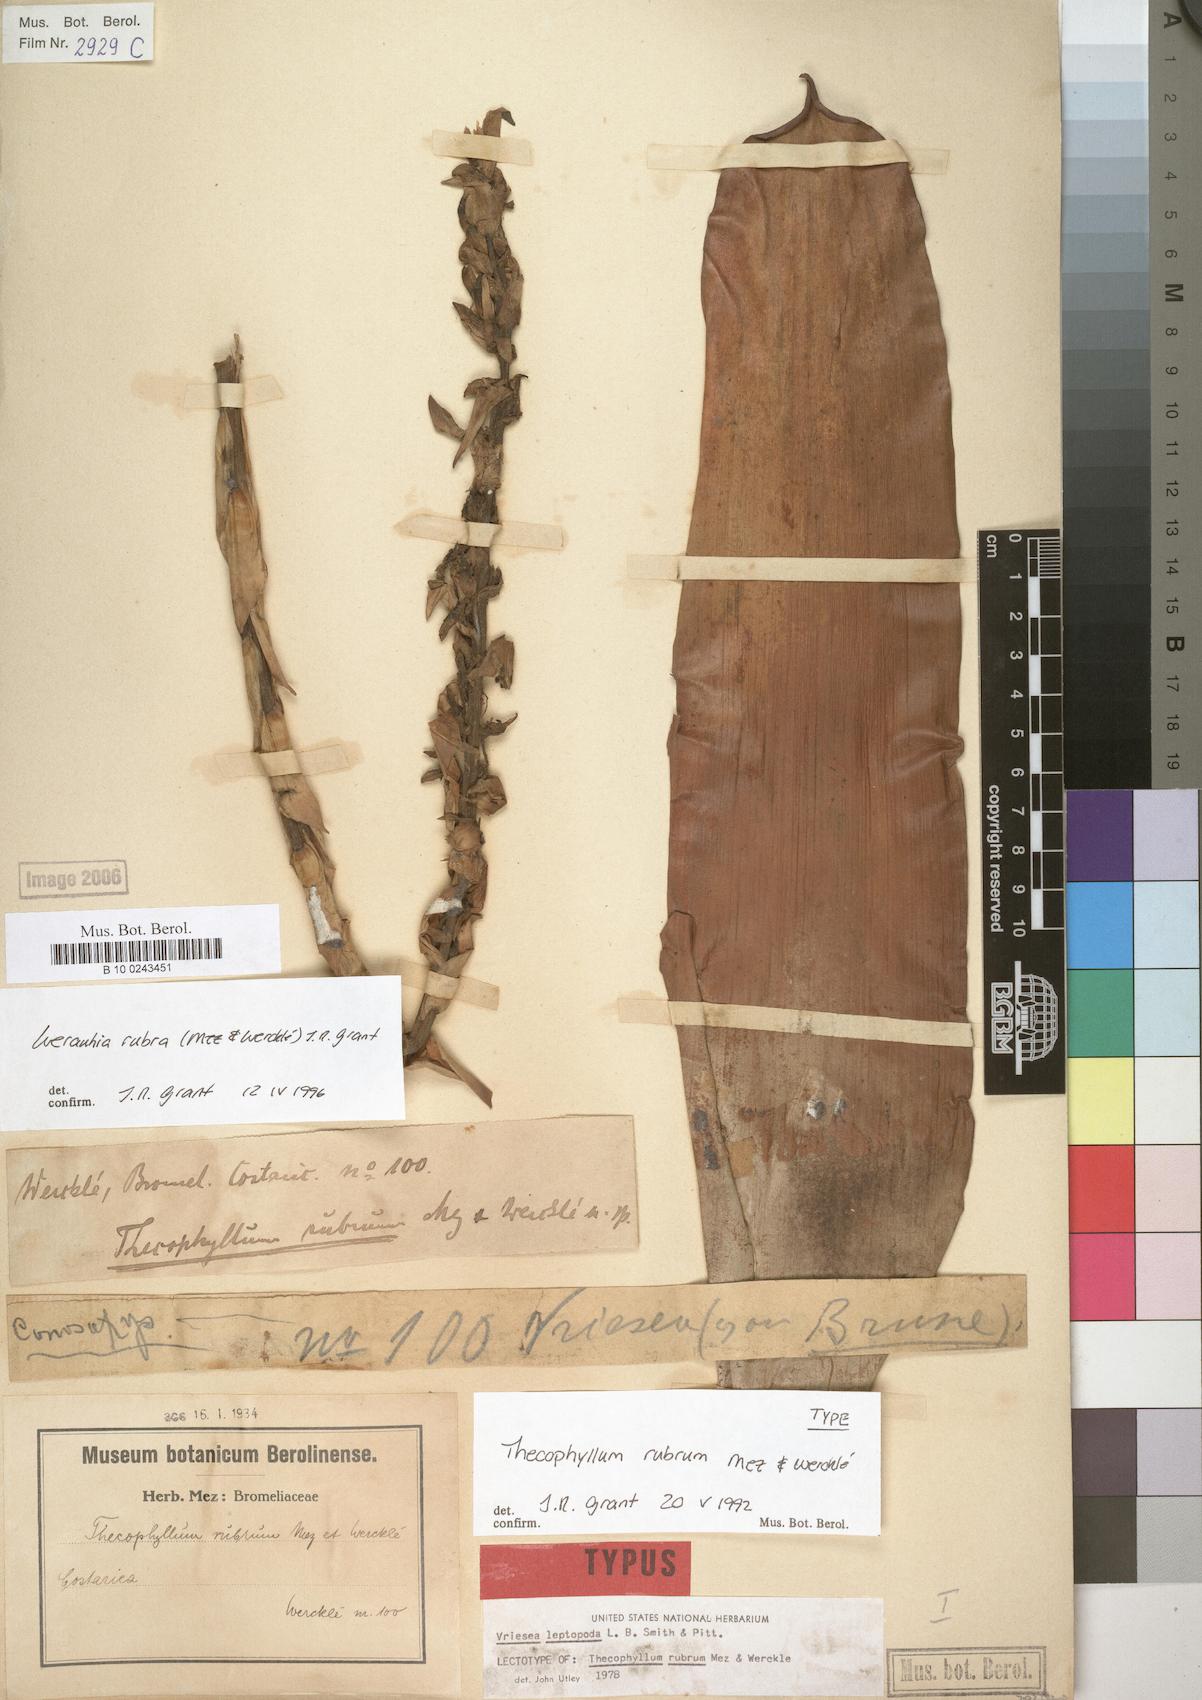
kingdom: Plantae
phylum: Tracheophyta
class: Liliopsida
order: Poales
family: Bromeliaceae
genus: Werauhia
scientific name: Werauhia rubra
